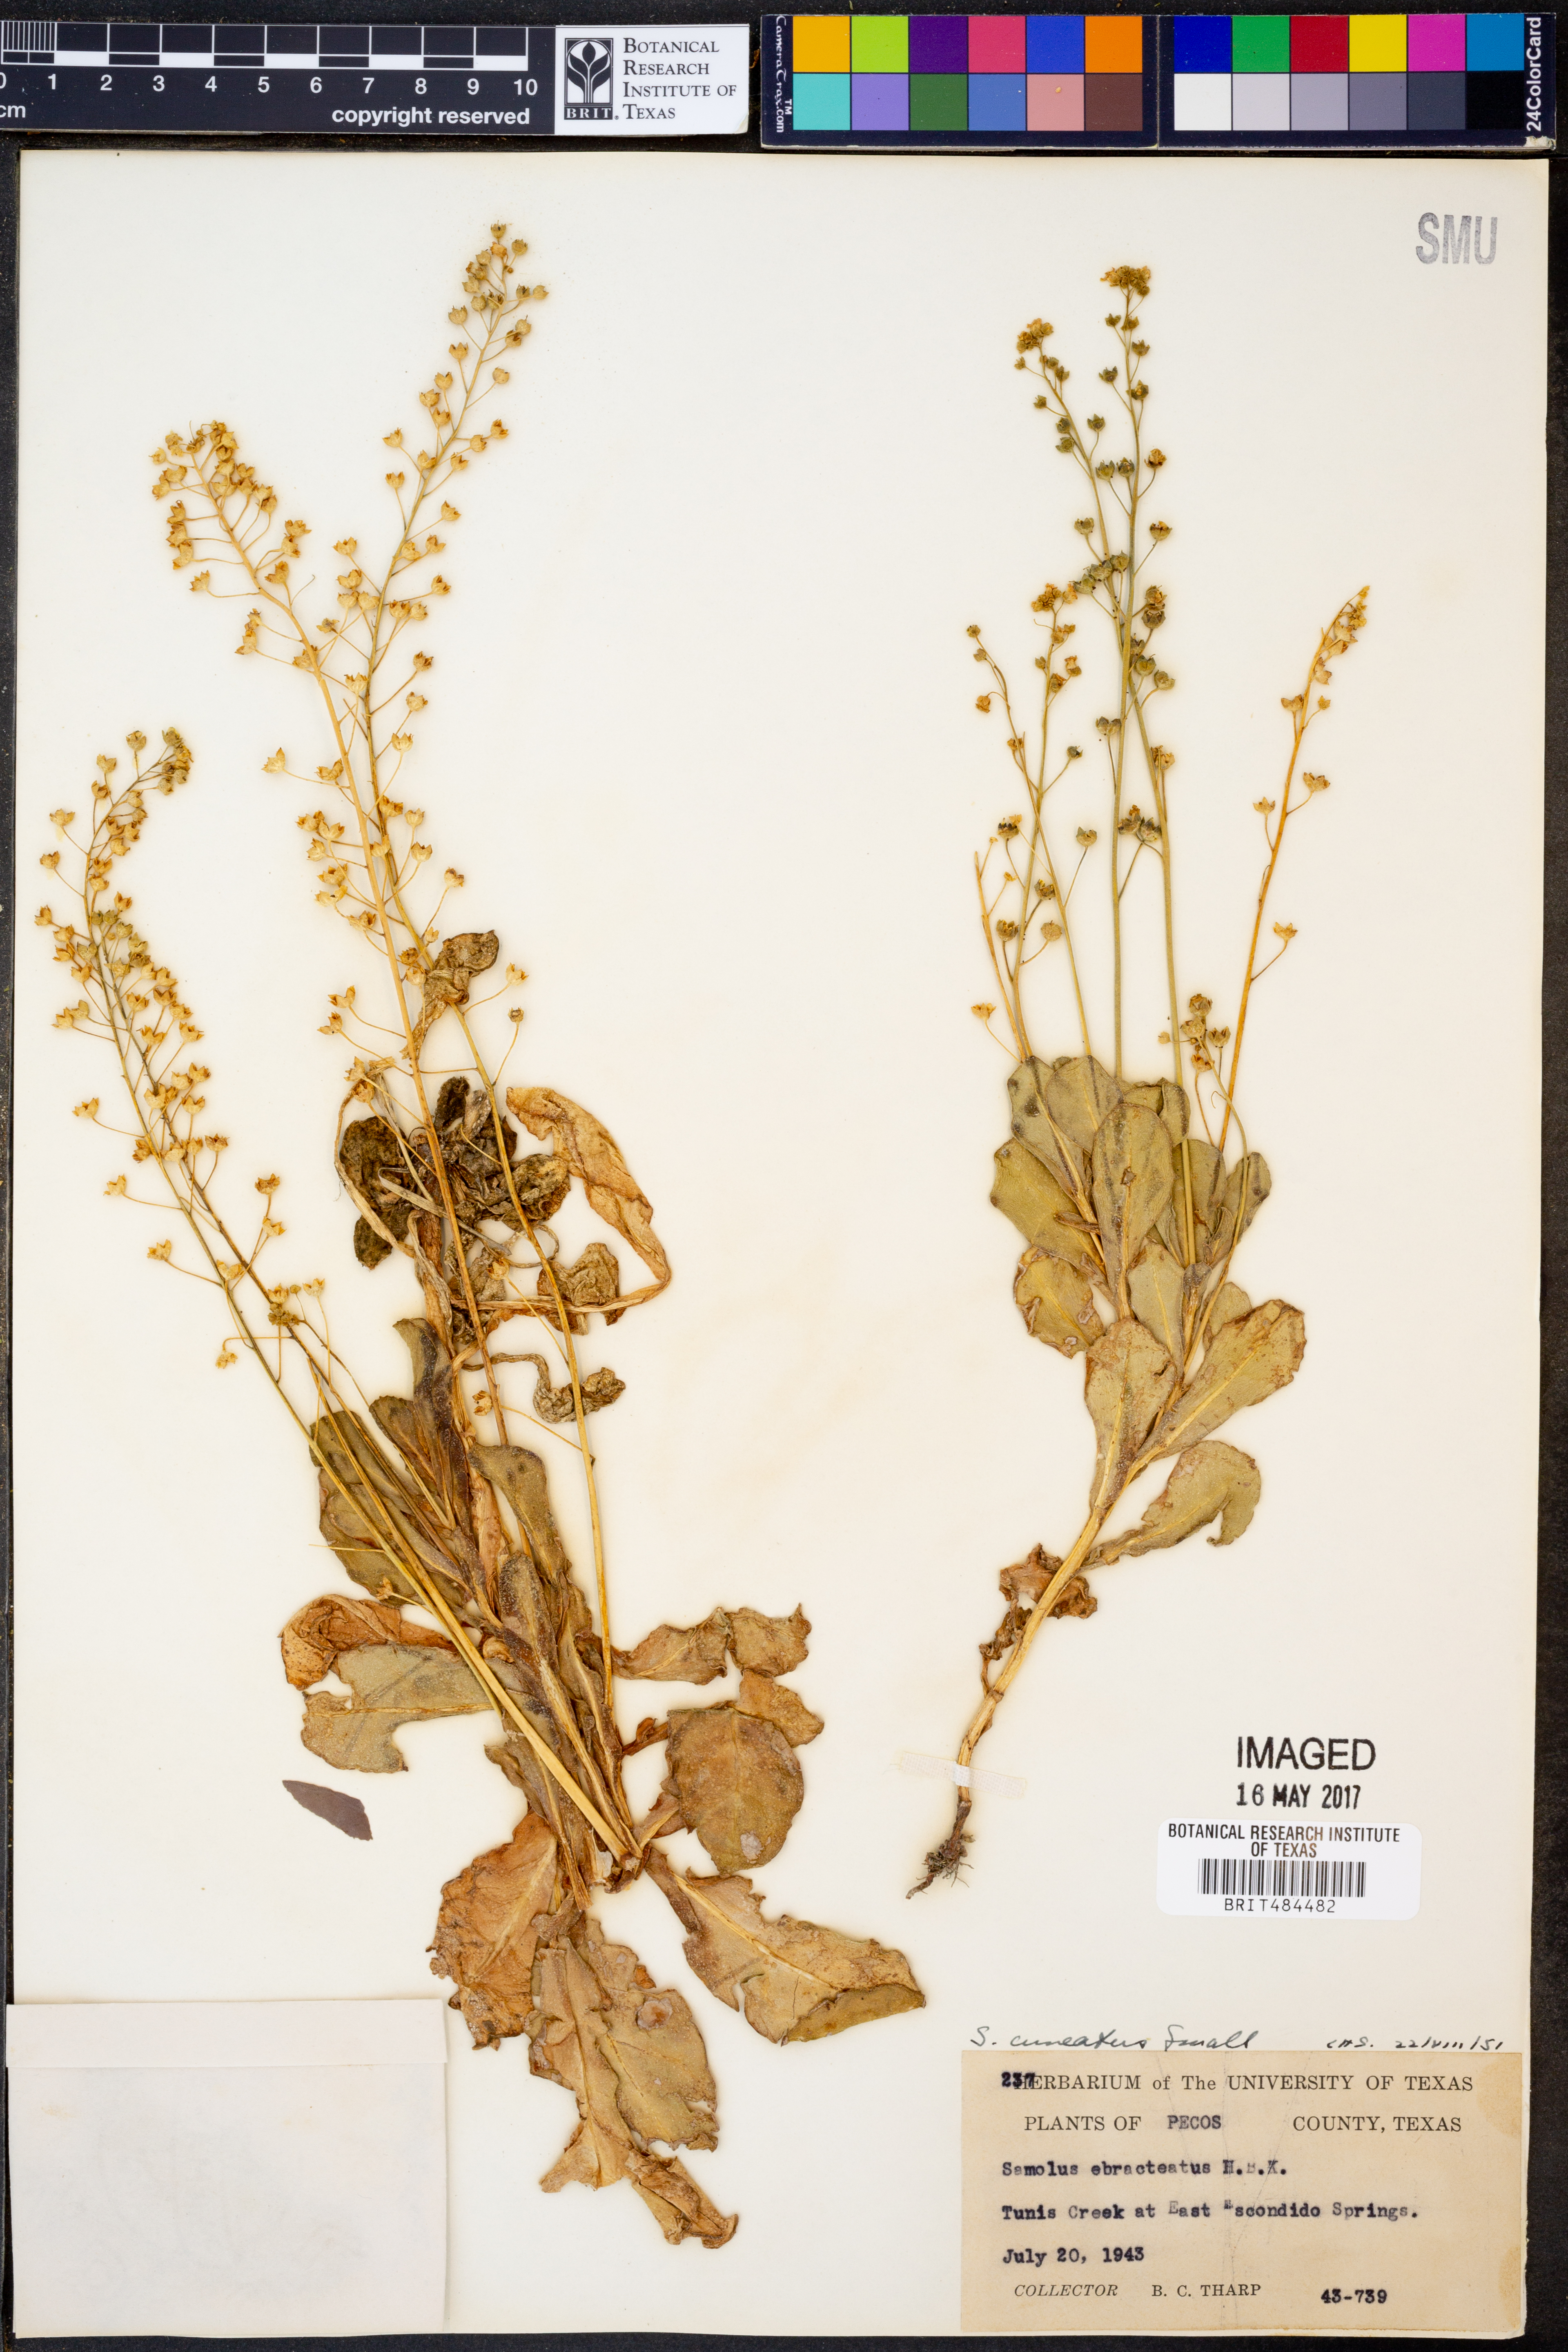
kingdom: Plantae
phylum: Tracheophyta
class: Magnoliopsida
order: Ericales
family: Primulaceae
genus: Samolus
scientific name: Samolus ebracteatus
